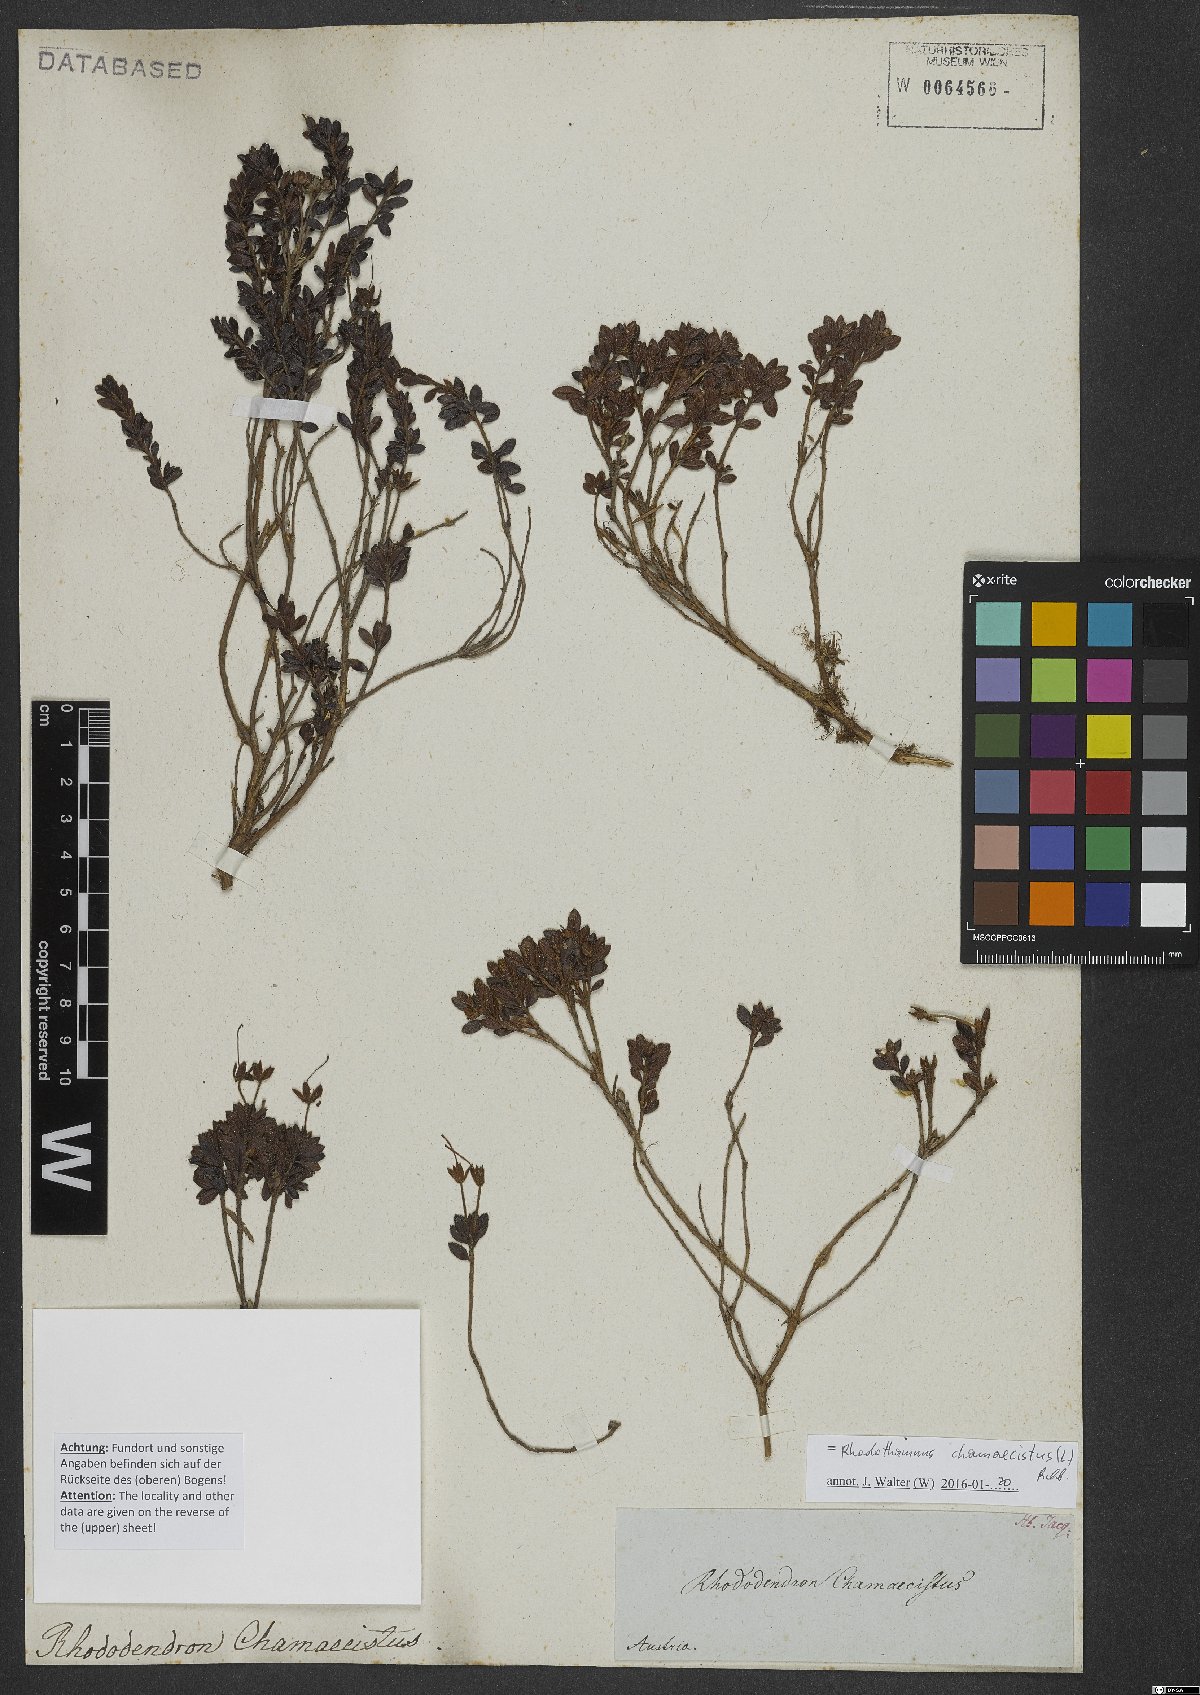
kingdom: Plantae
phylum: Tracheophyta
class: Magnoliopsida
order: Ericales
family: Ericaceae
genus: Rhodothamnus
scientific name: Rhodothamnus chamaecistus
